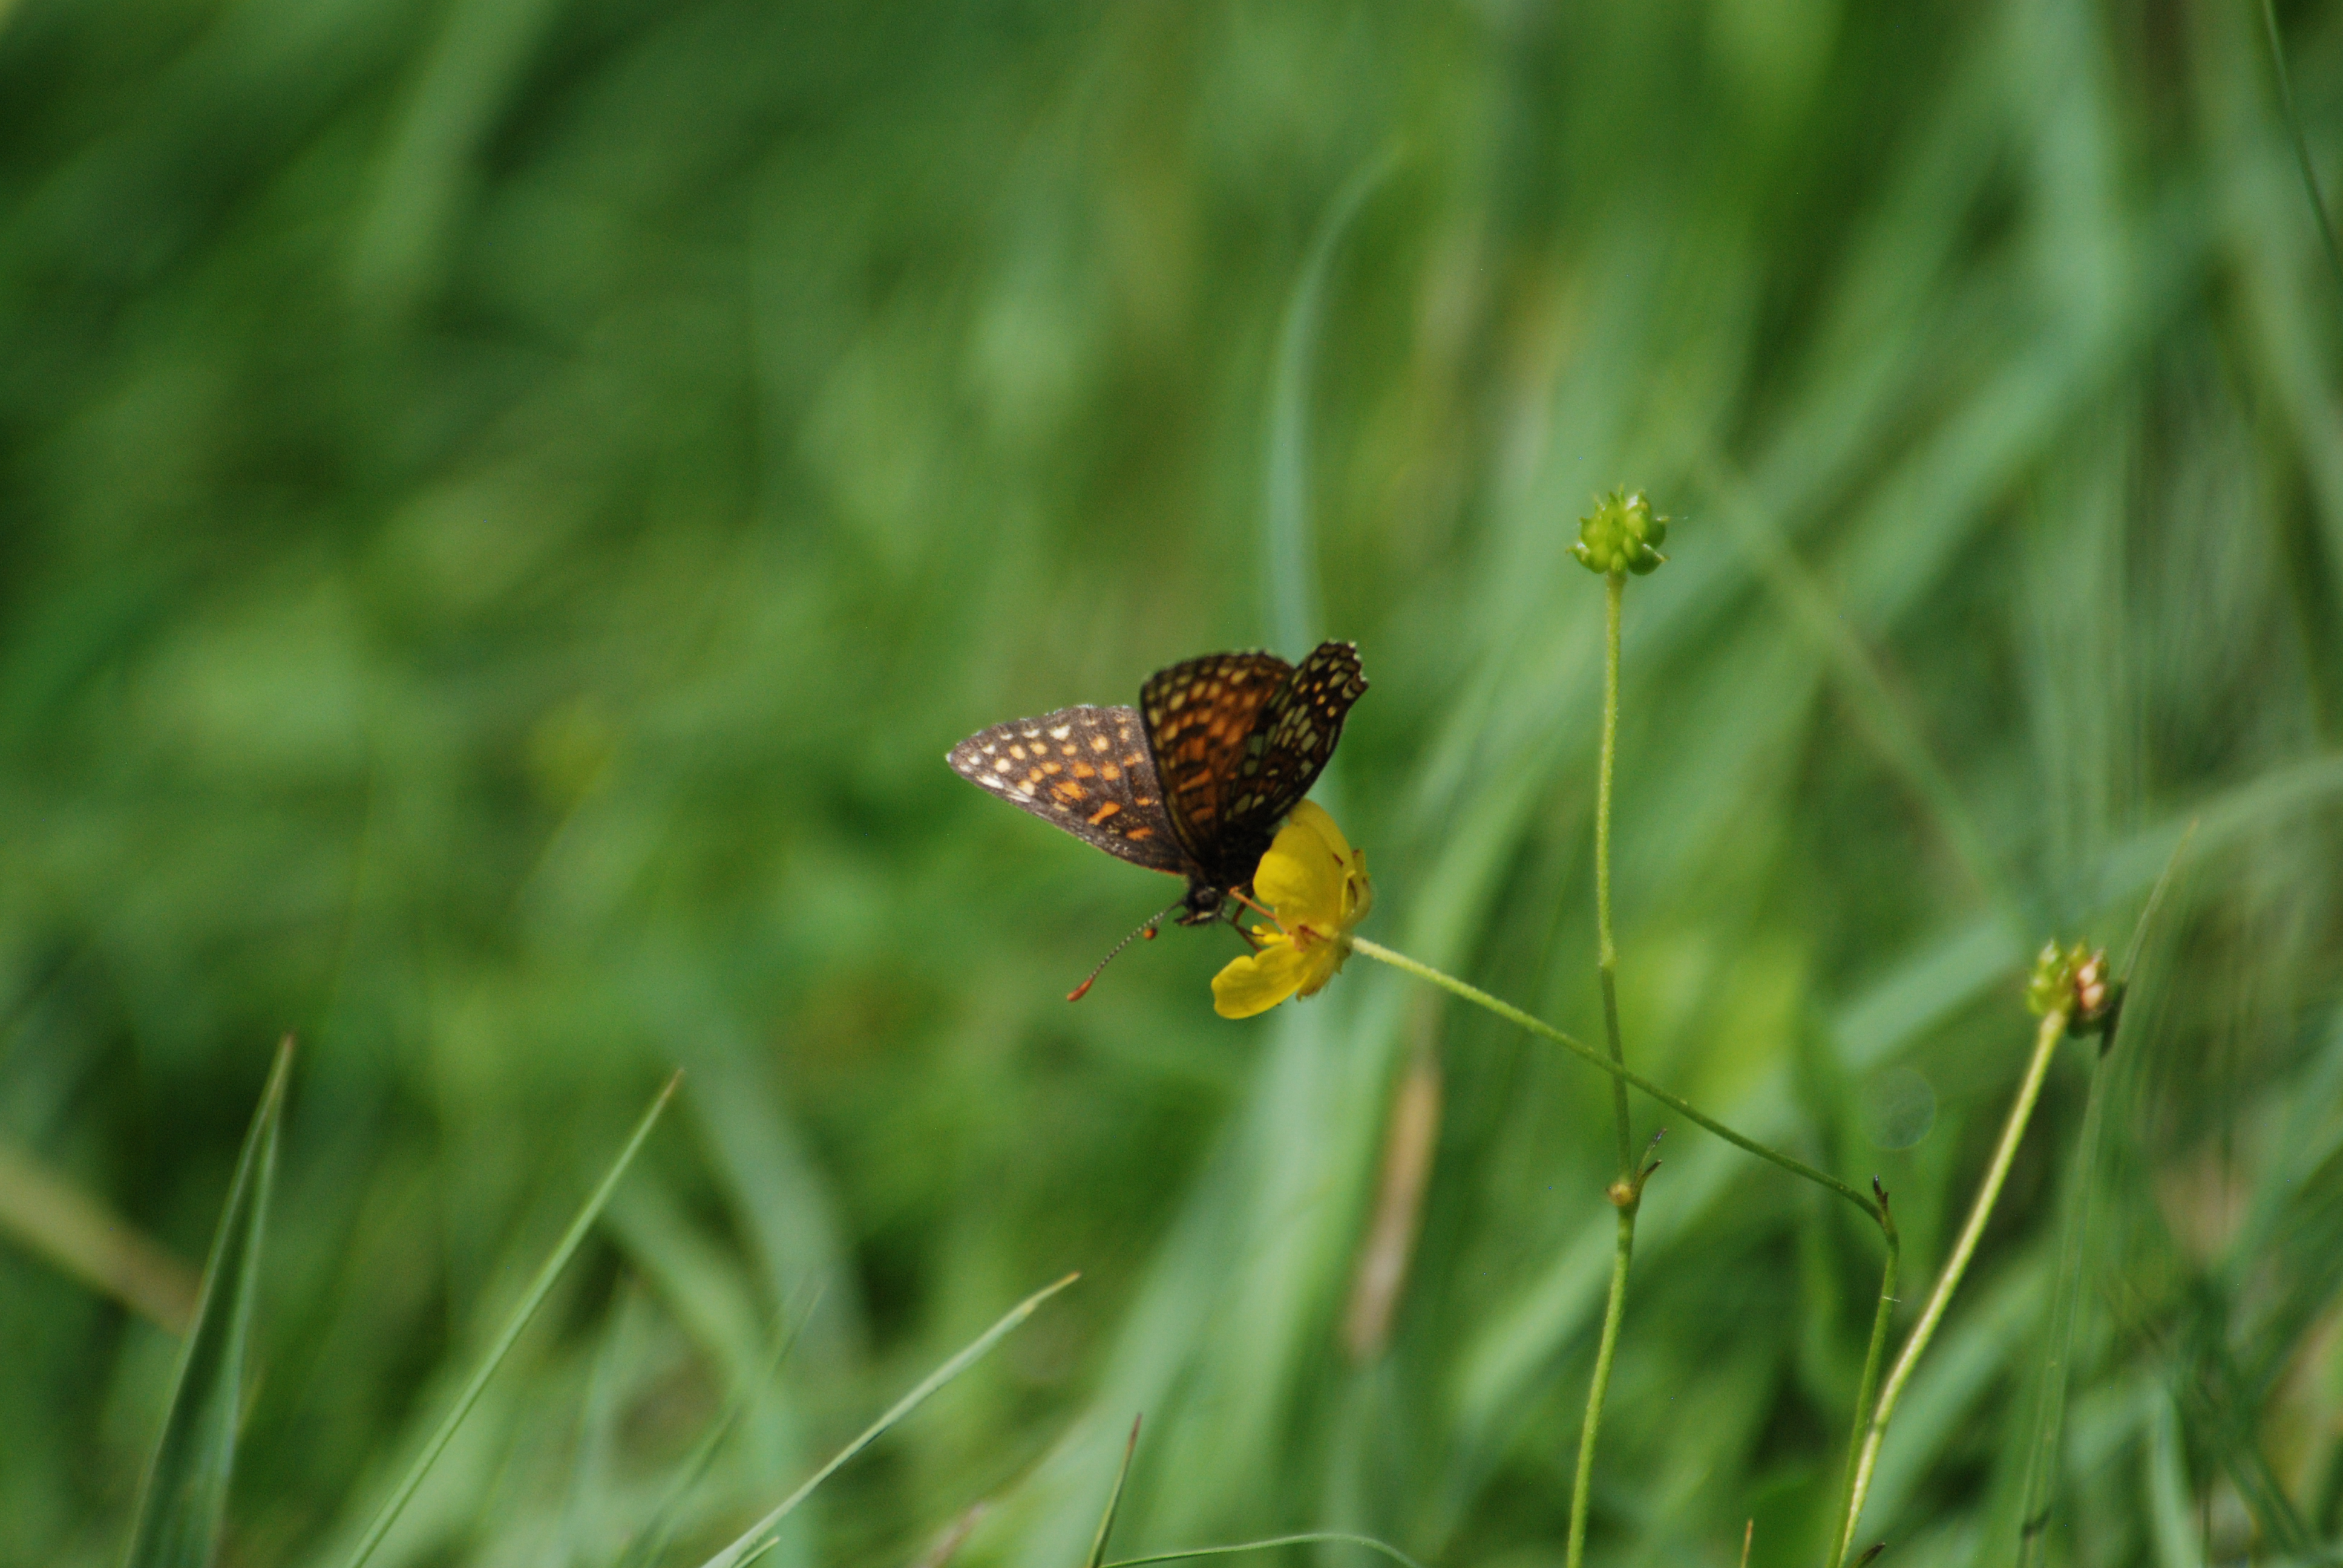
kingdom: Animalia
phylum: Arthropoda
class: Insecta
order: Lepidoptera
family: Nymphalidae
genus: Melitaea
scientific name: Melitaea diamina
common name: Mørk pletvinge
